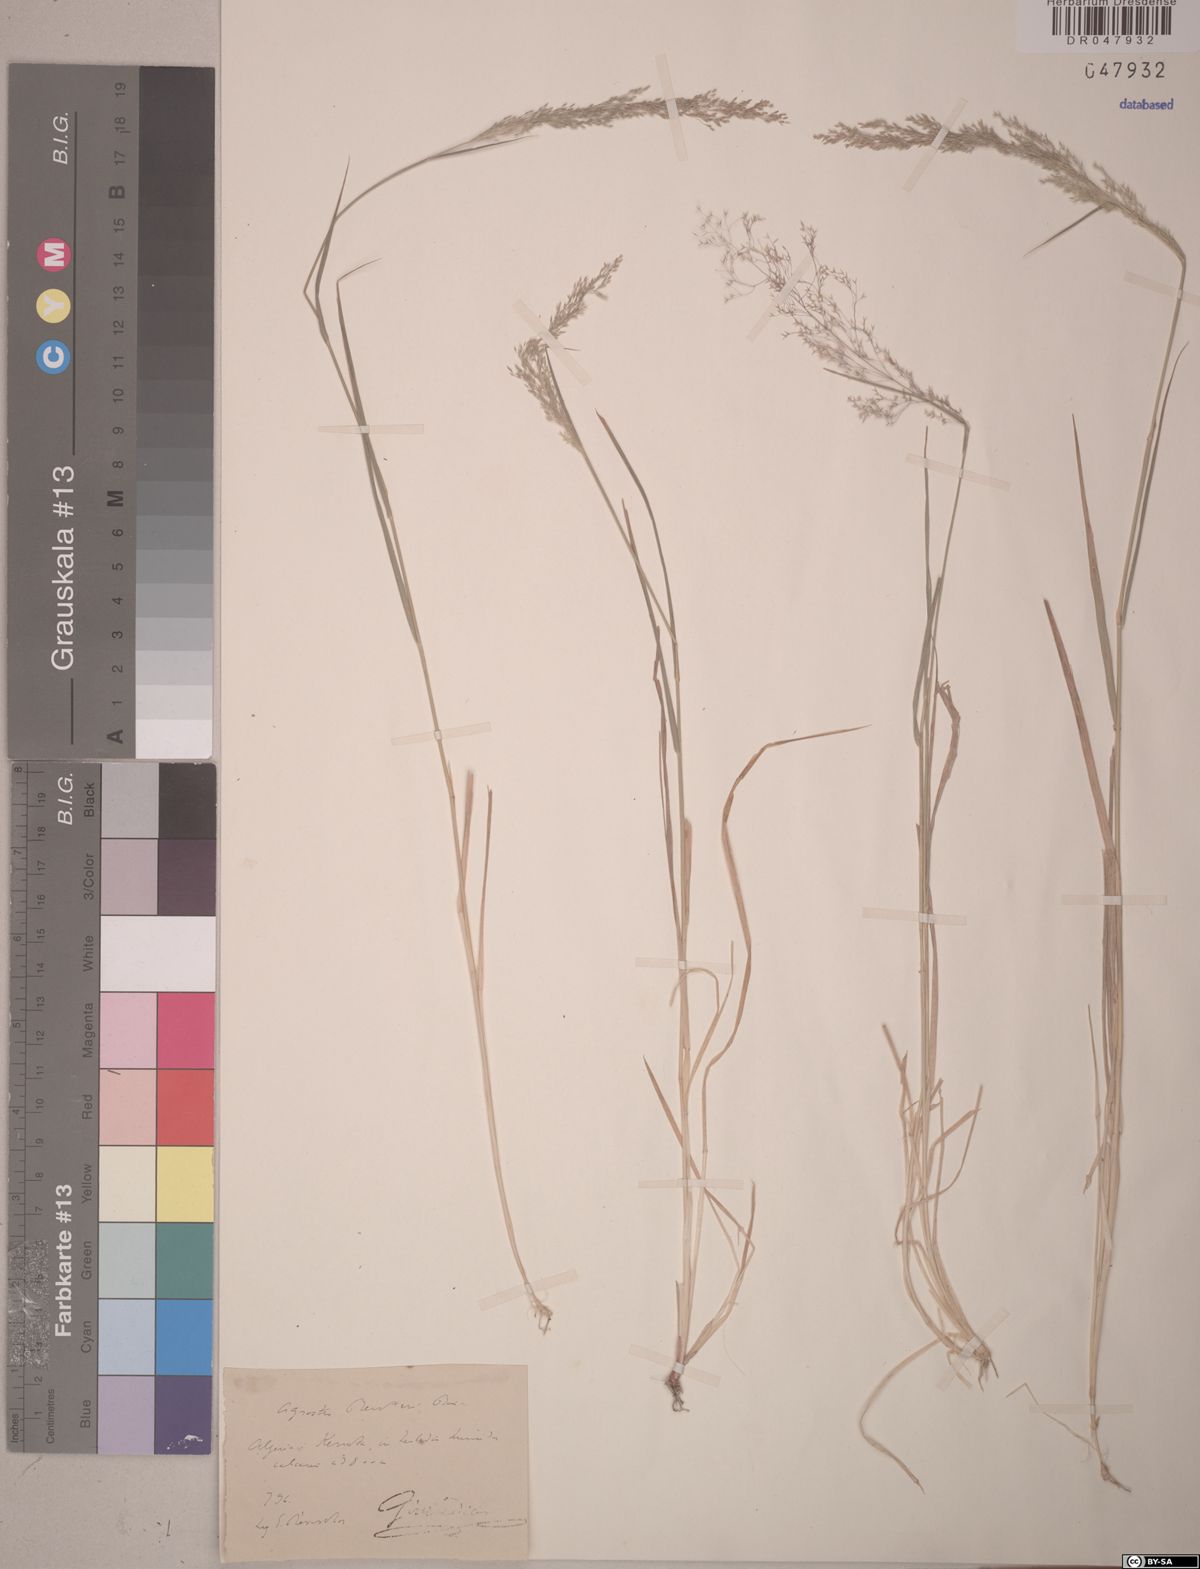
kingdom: Plantae
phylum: Tracheophyta
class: Liliopsida
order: Poales
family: Poaceae
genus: Agrostis
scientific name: Agrostis reuteri
